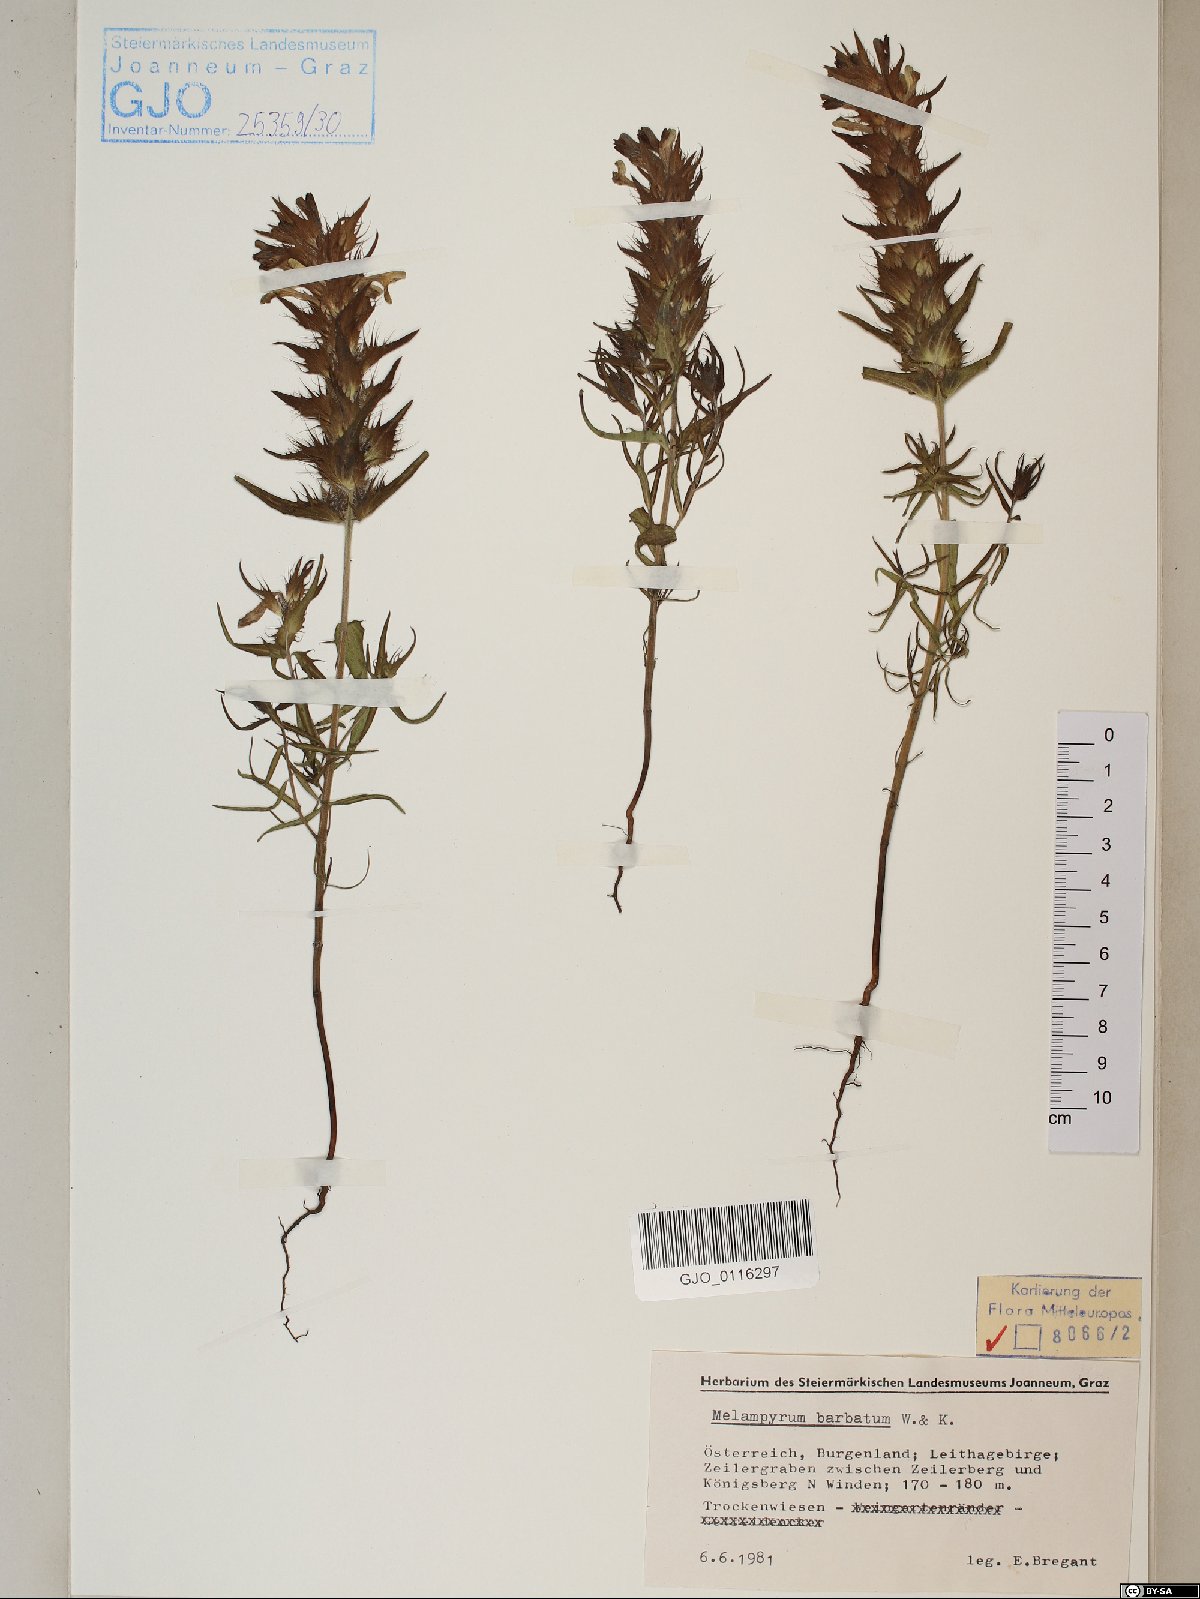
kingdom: Plantae
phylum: Tracheophyta
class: Magnoliopsida
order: Lamiales
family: Orobanchaceae
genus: Melampyrum
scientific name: Melampyrum barbatum
